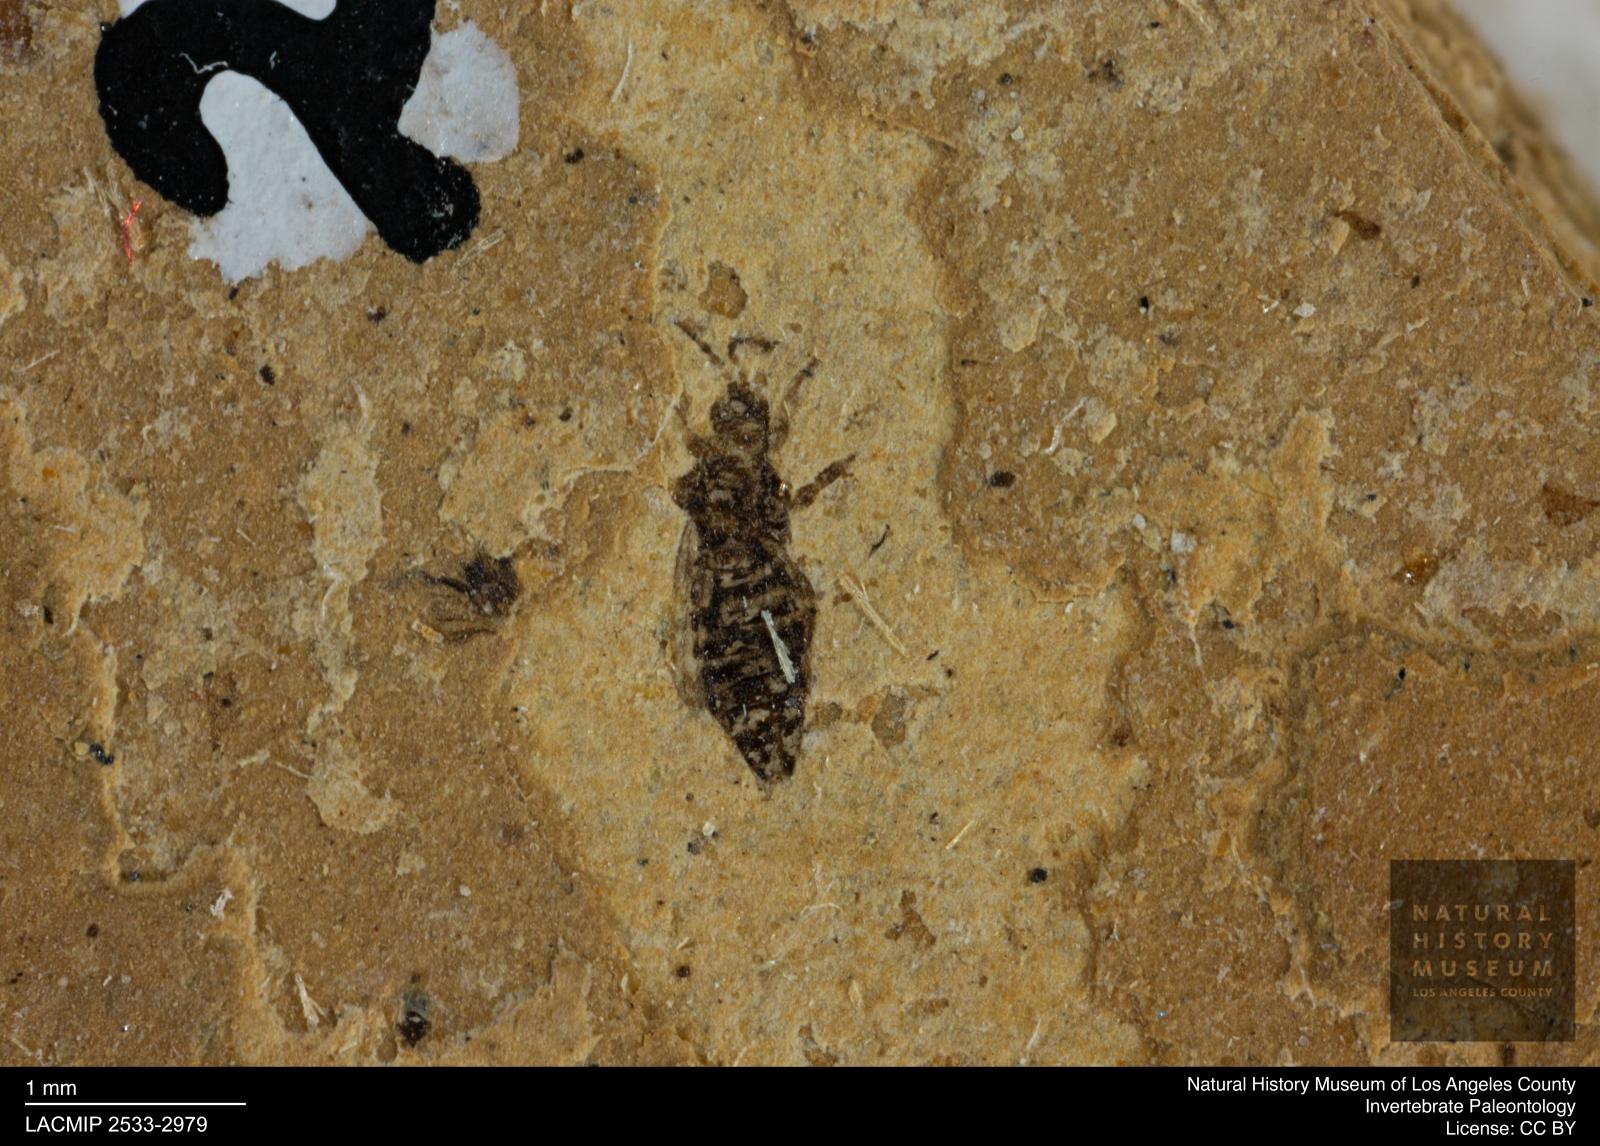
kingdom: Animalia
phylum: Arthropoda
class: Insecta
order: Thysanoptera
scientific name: Thysanoptera
